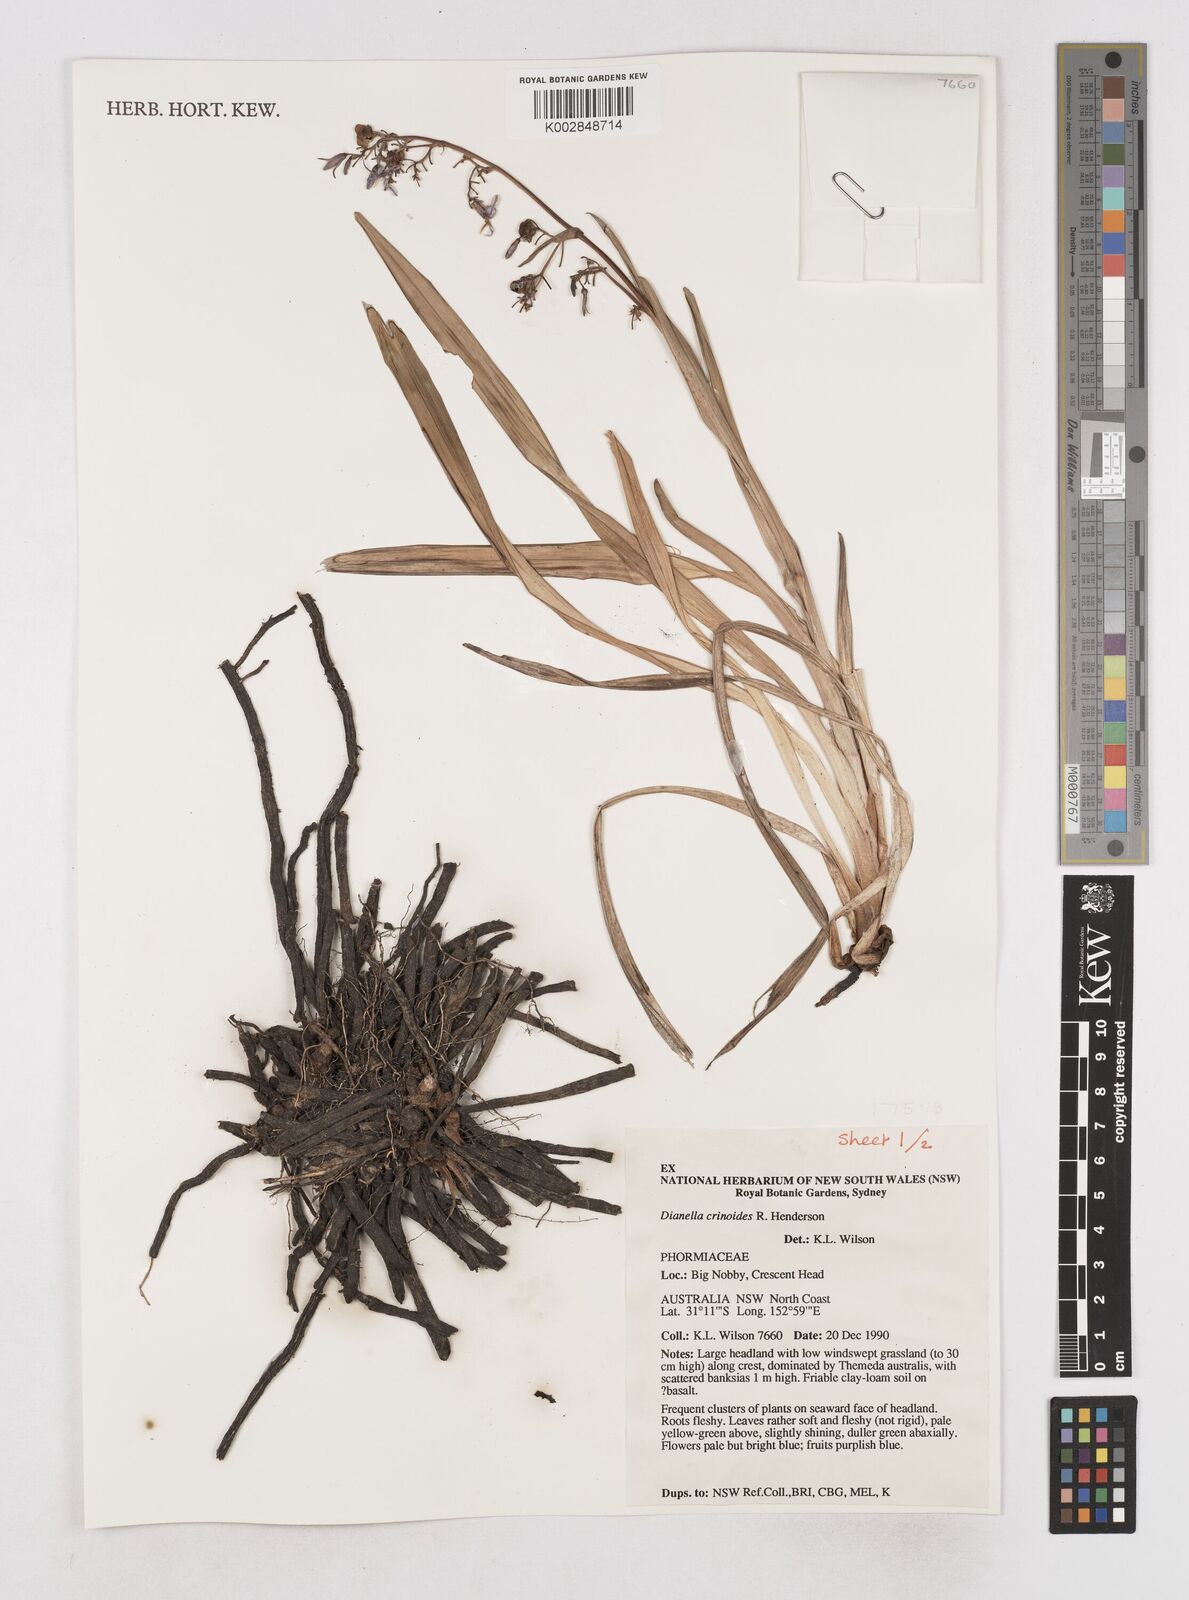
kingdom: Plantae
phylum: Tracheophyta
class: Liliopsida
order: Asparagales
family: Asphodelaceae
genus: Dianella
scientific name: Dianella crinoides
